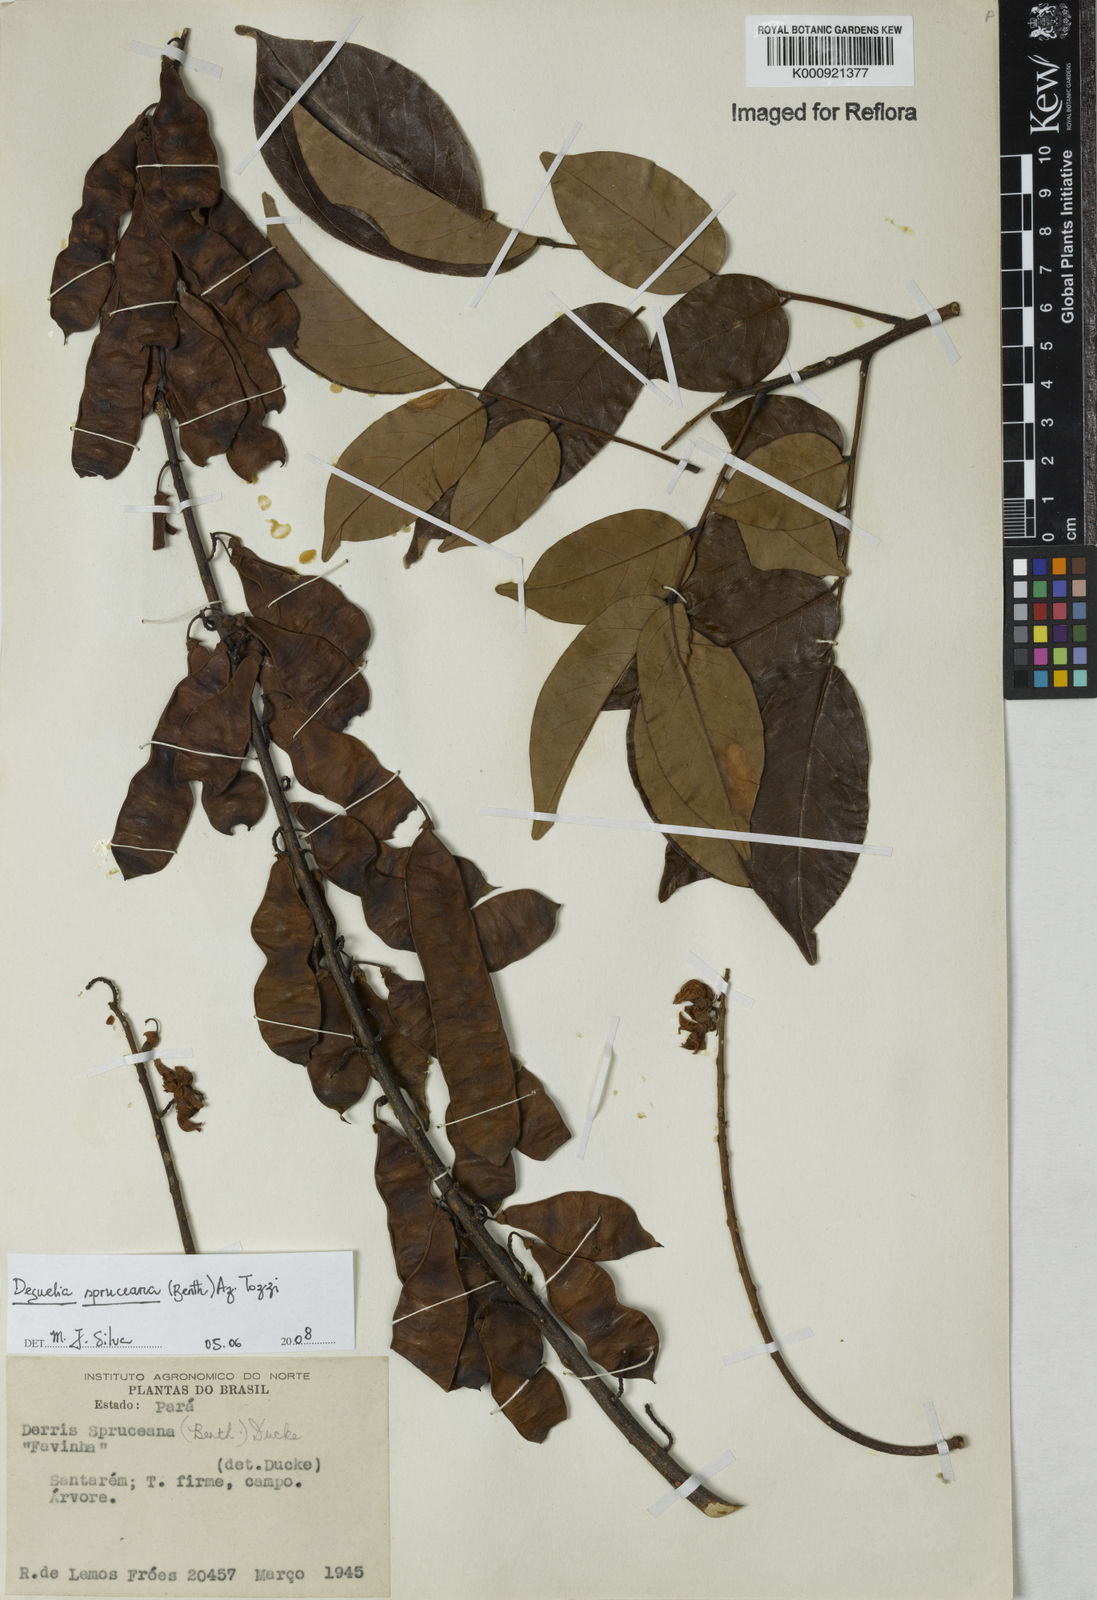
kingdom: Plantae
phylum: Tracheophyta
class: Magnoliopsida
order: Fabales
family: Fabaceae
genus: Deguelia
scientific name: Deguelia spruceana
